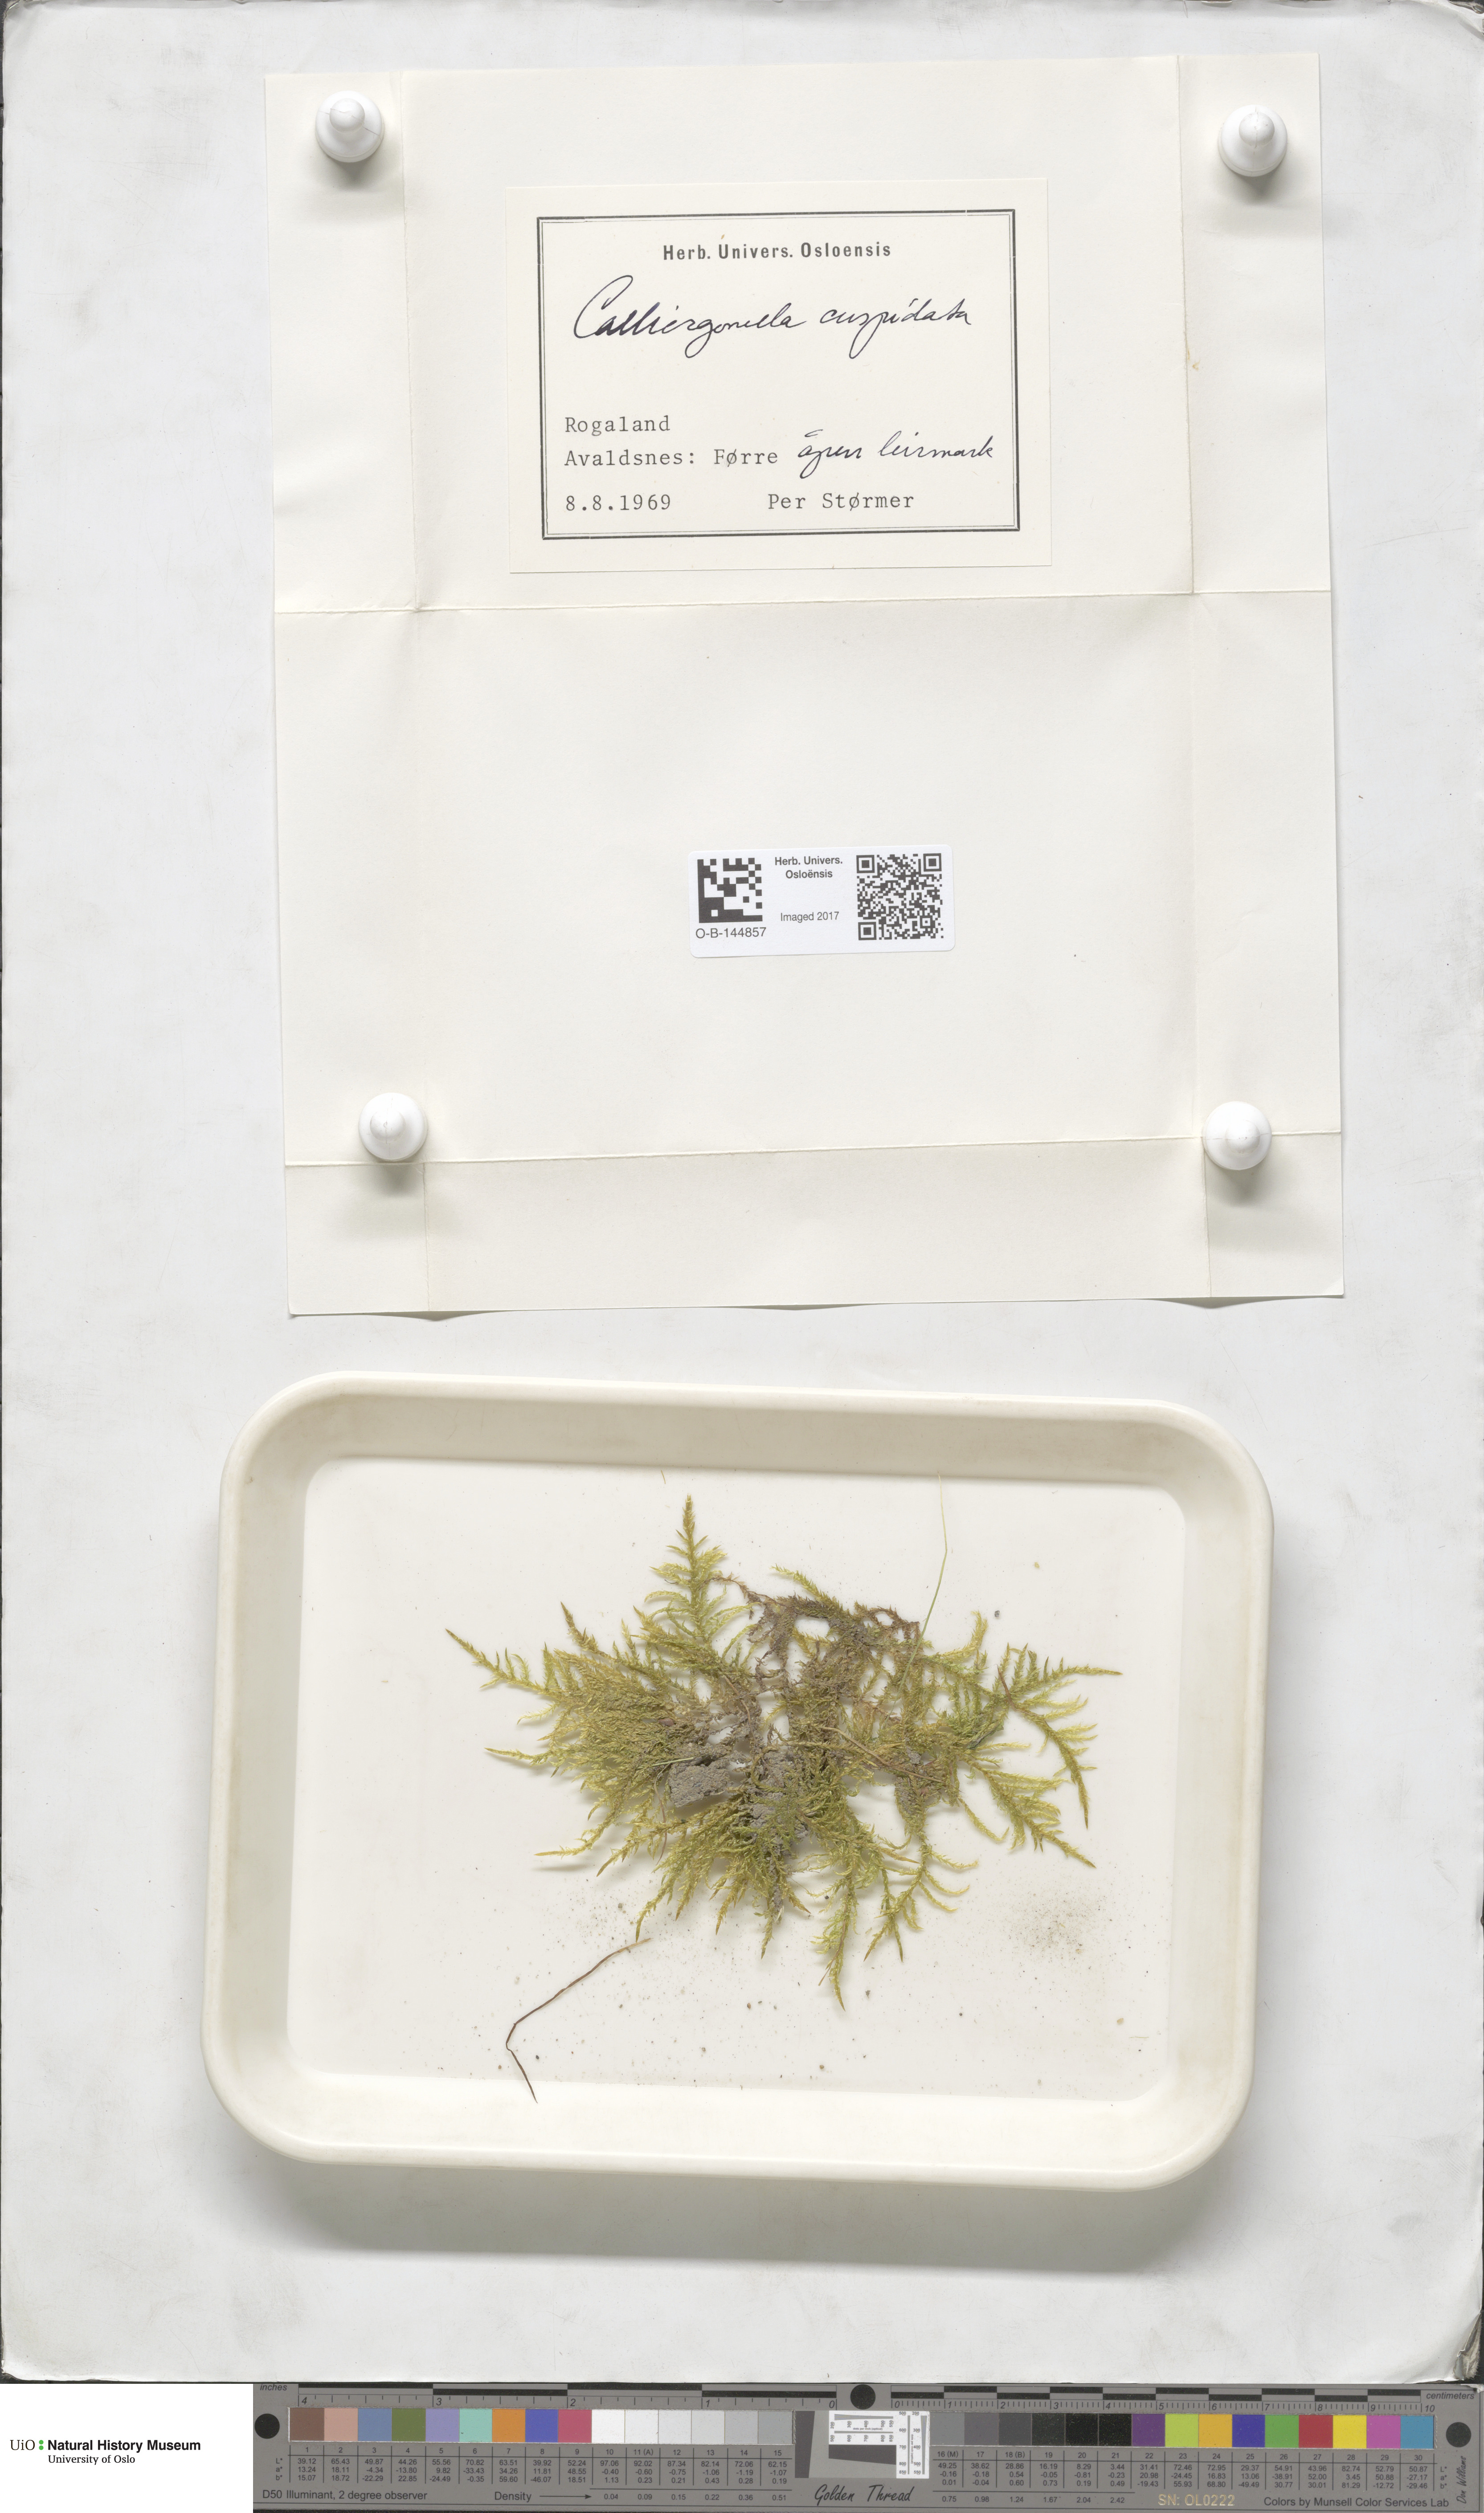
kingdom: Plantae
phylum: Bryophyta
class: Bryopsida
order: Hypnales
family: Pylaisiaceae
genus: Calliergonella
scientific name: Calliergonella cuspidata
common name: Common large wetland moss
